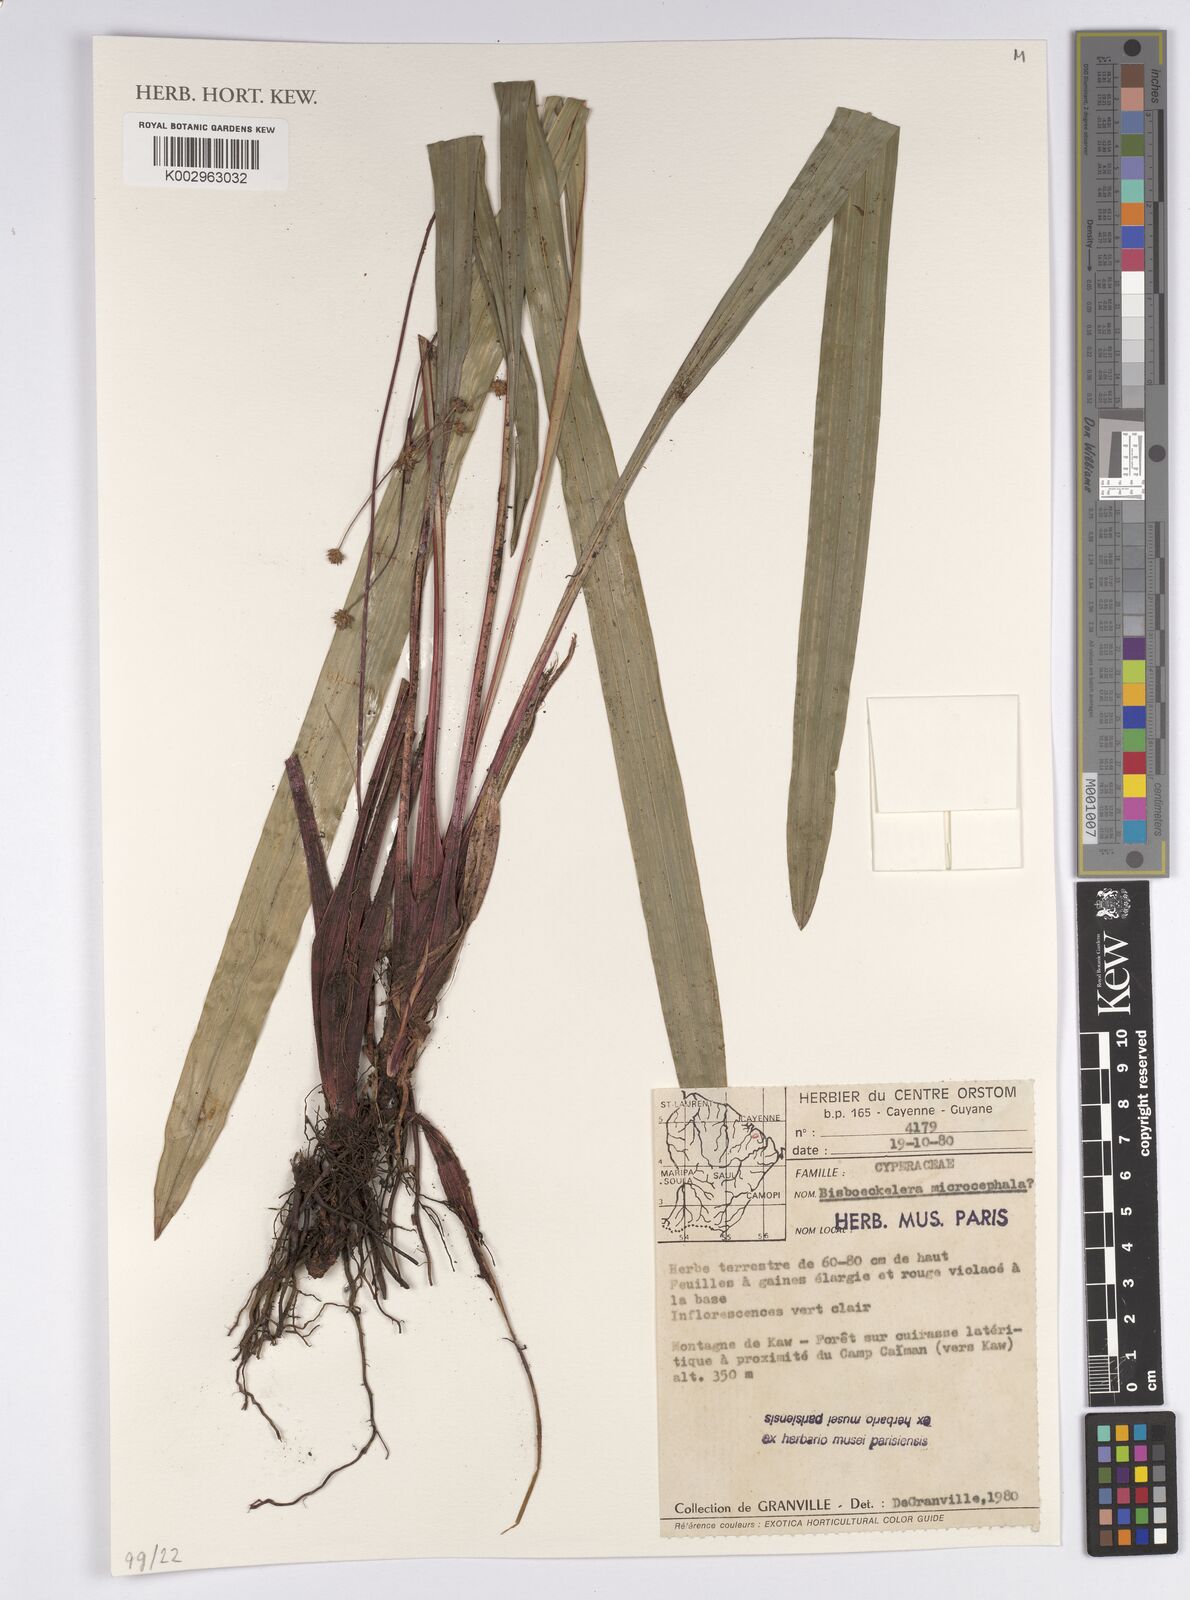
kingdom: Plantae
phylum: Tracheophyta
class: Liliopsida
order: Poales
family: Cyperaceae
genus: Bisboeckelera
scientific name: Bisboeckelera microcephala
